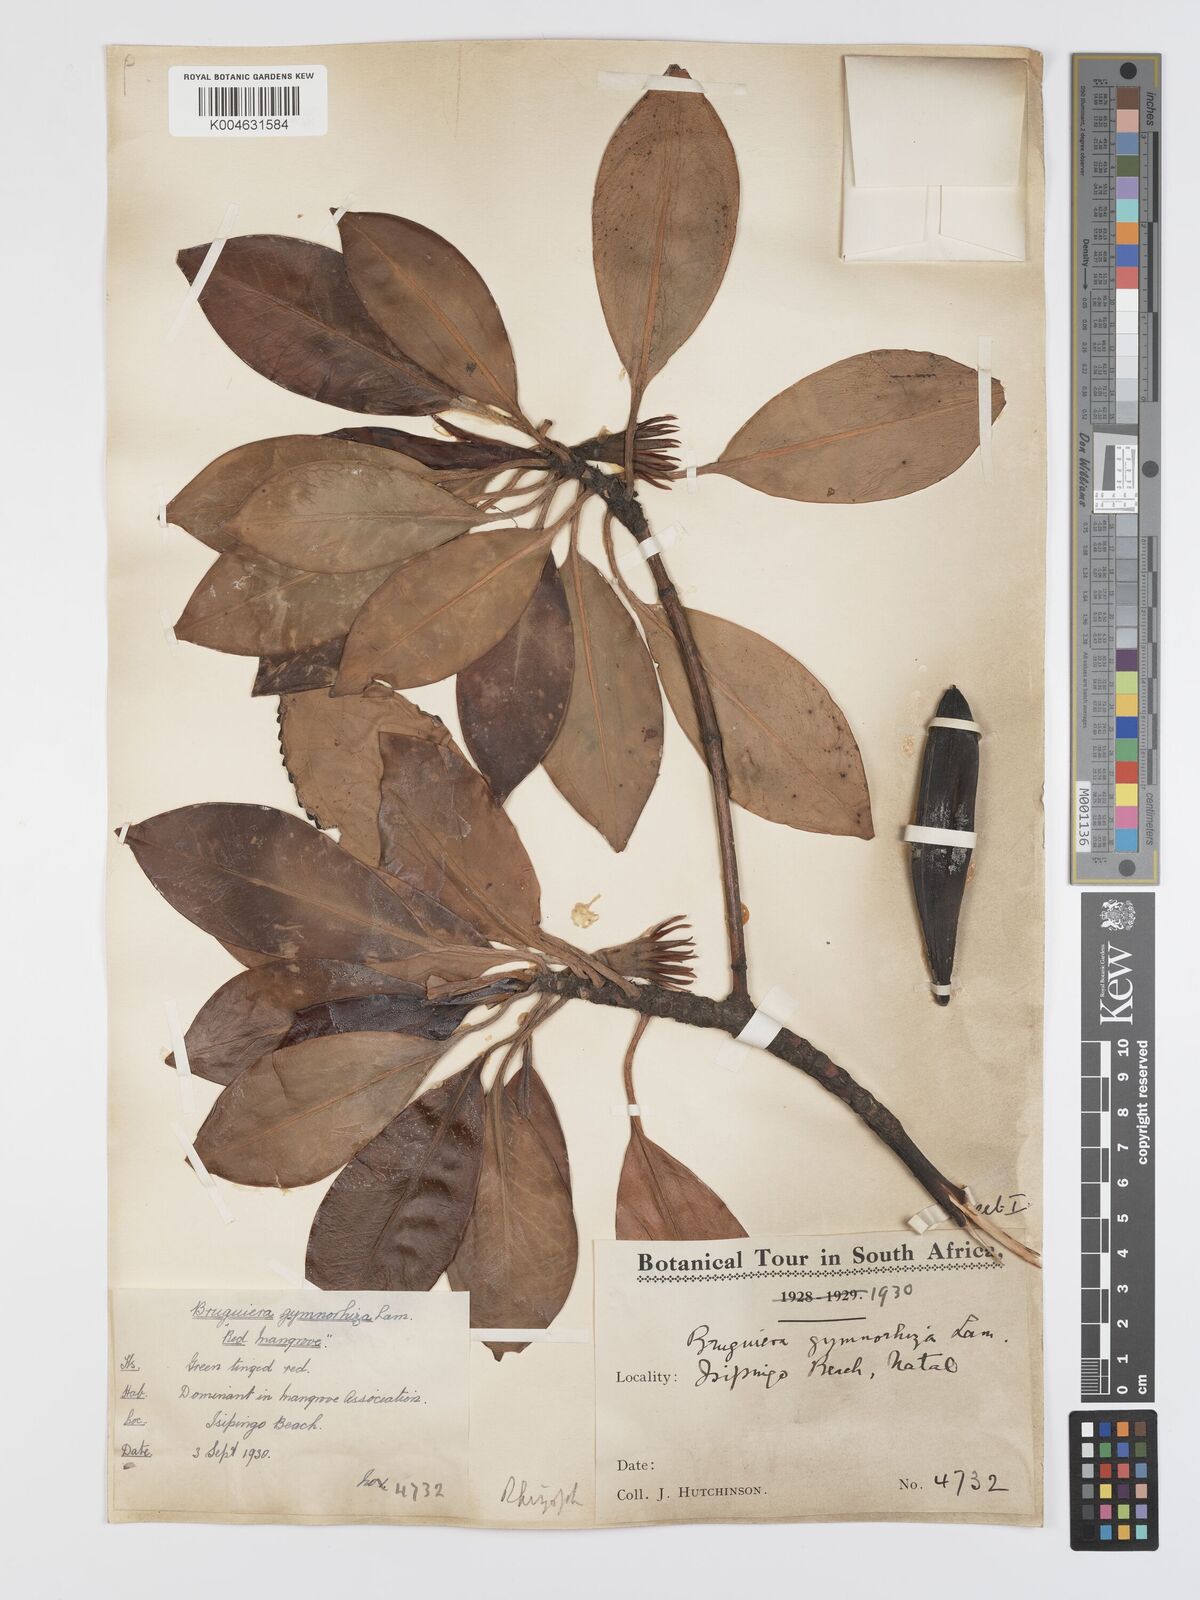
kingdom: Plantae
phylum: Tracheophyta
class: Magnoliopsida
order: Malpighiales
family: Rhizophoraceae
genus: Bruguiera
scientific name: Bruguiera
